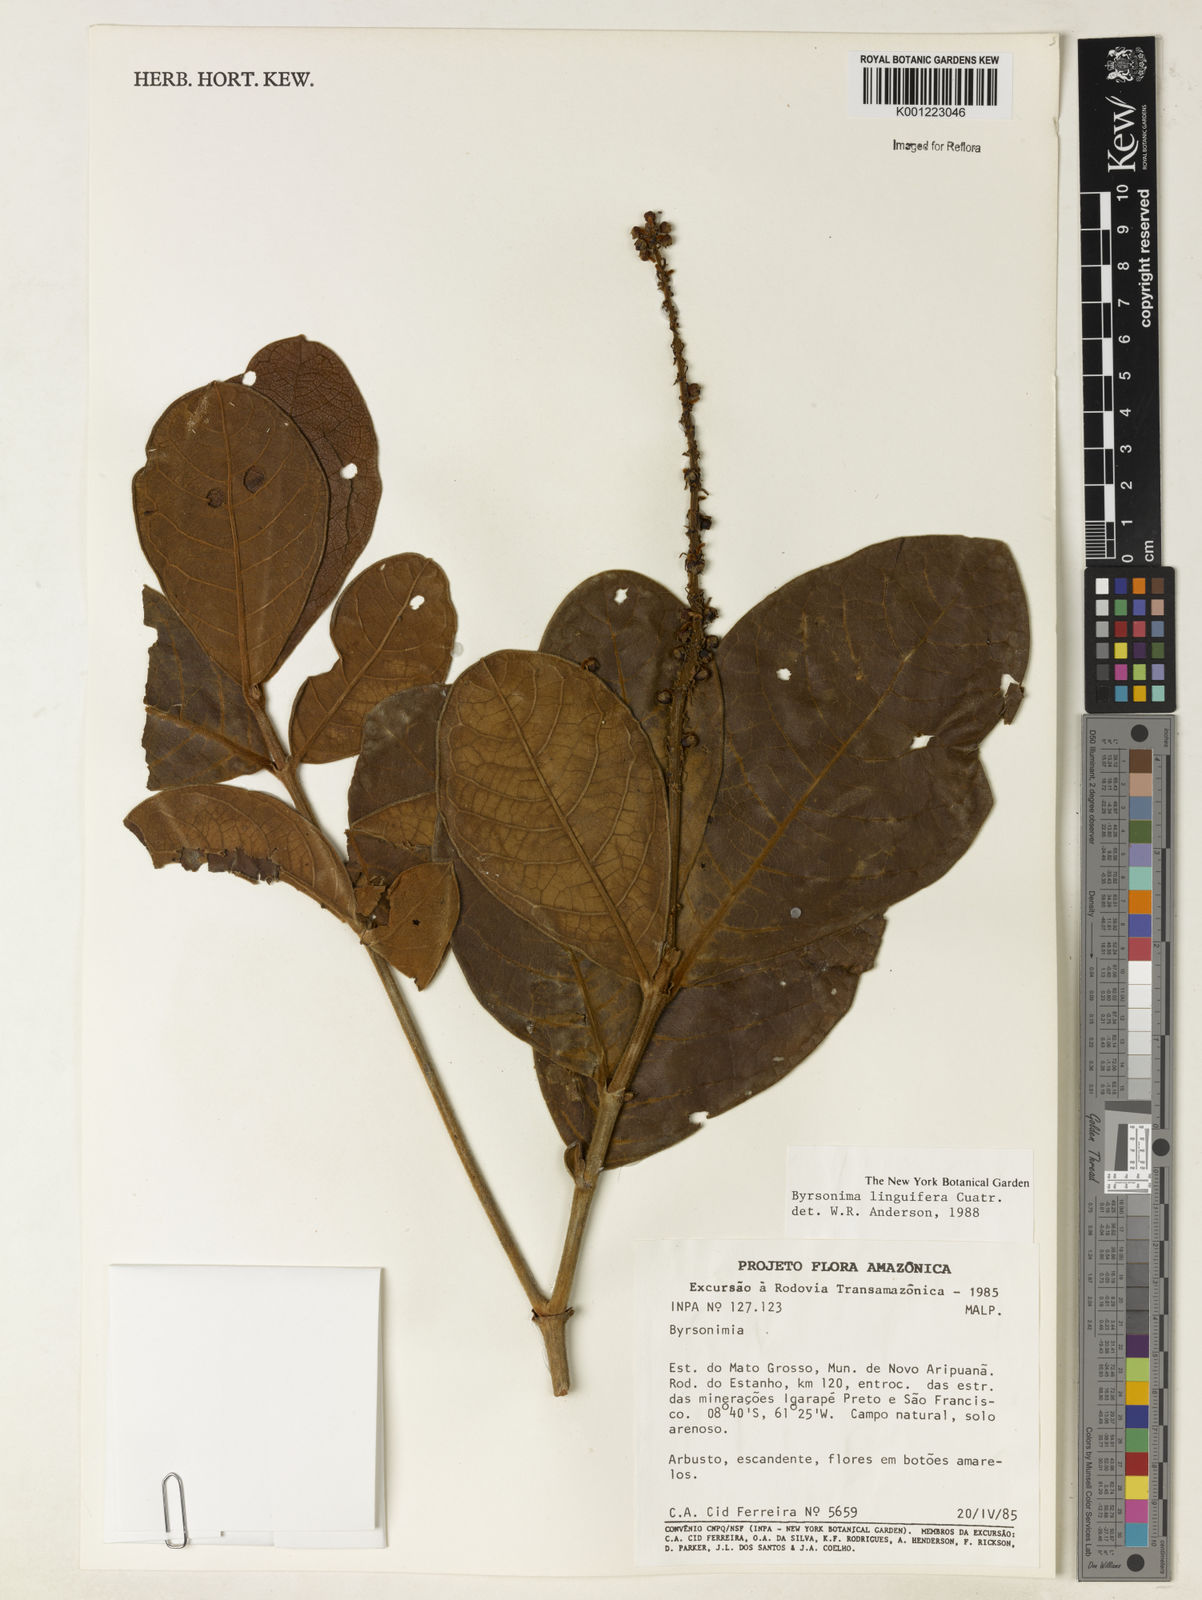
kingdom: Plantae
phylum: Tracheophyta
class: Magnoliopsida
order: Malpighiales
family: Malpighiaceae
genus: Byrsonima
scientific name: Byrsonima linguifera
